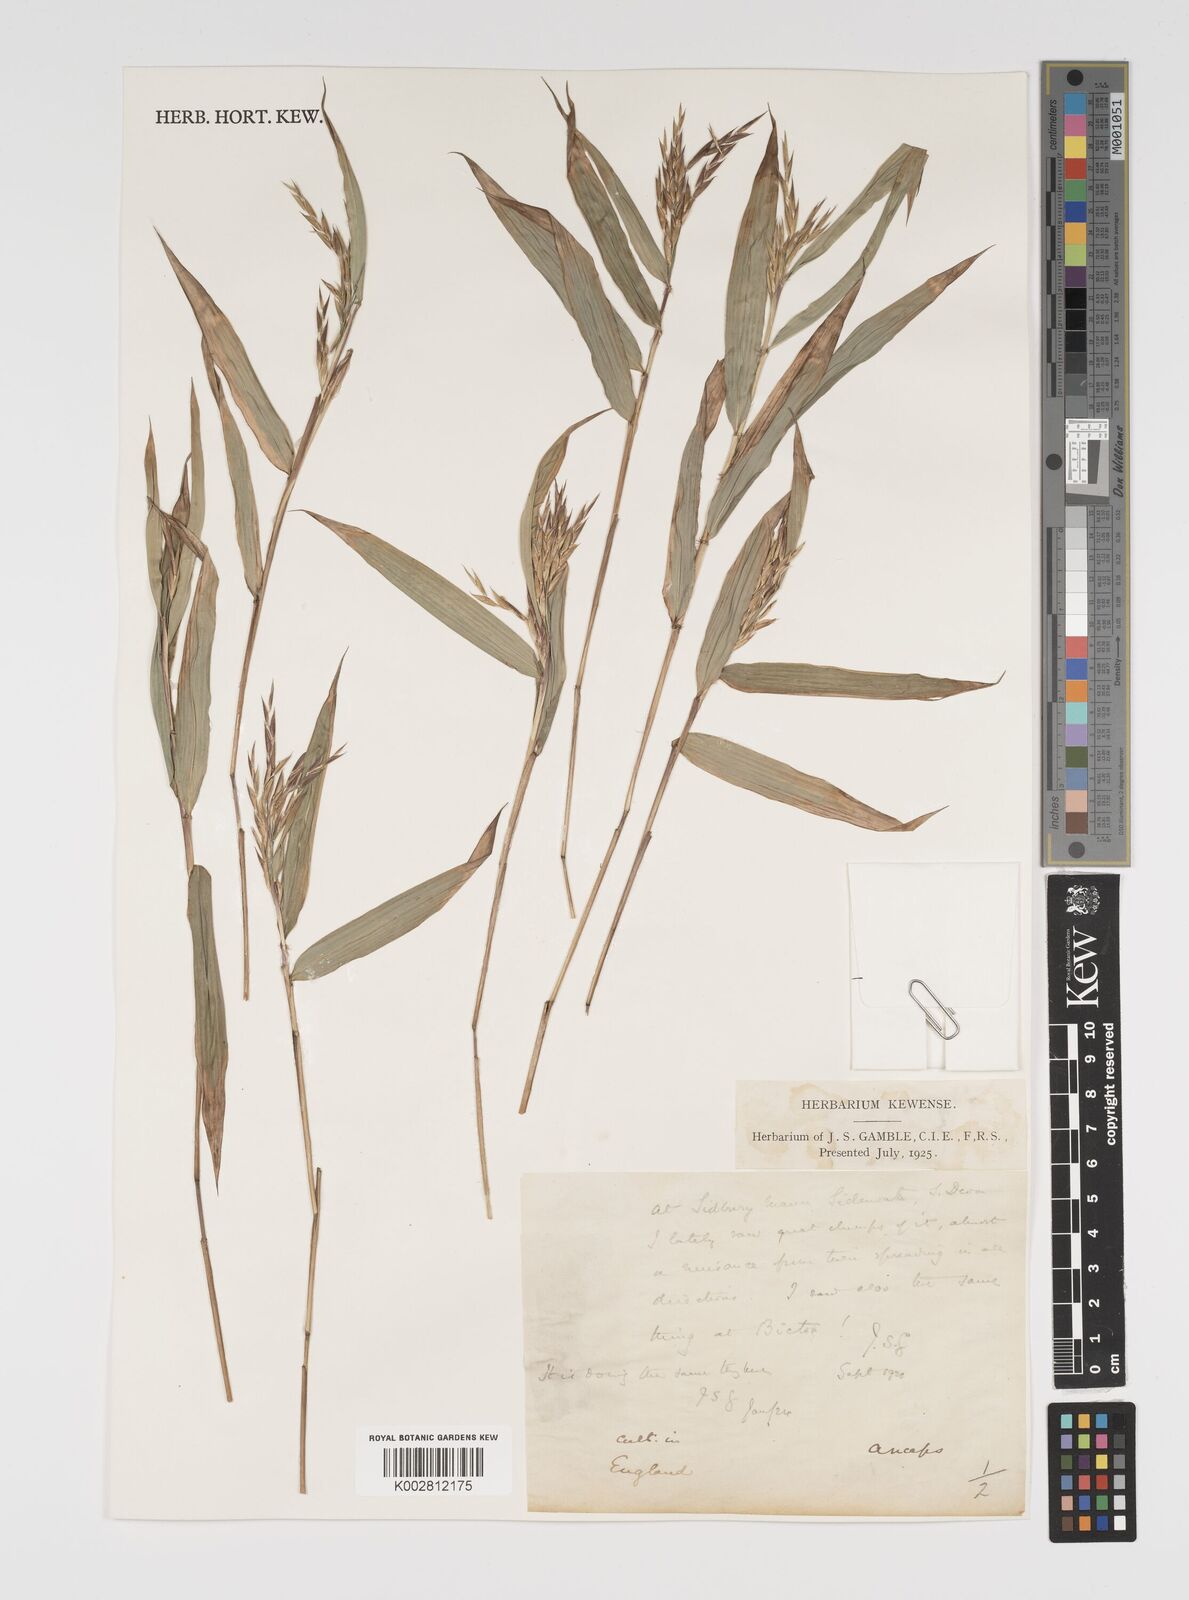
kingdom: Plantae
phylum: Tracheophyta
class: Liliopsida
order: Poales
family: Poaceae
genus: Yushania
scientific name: Yushania anceps
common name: Indian fountain-bamboo
